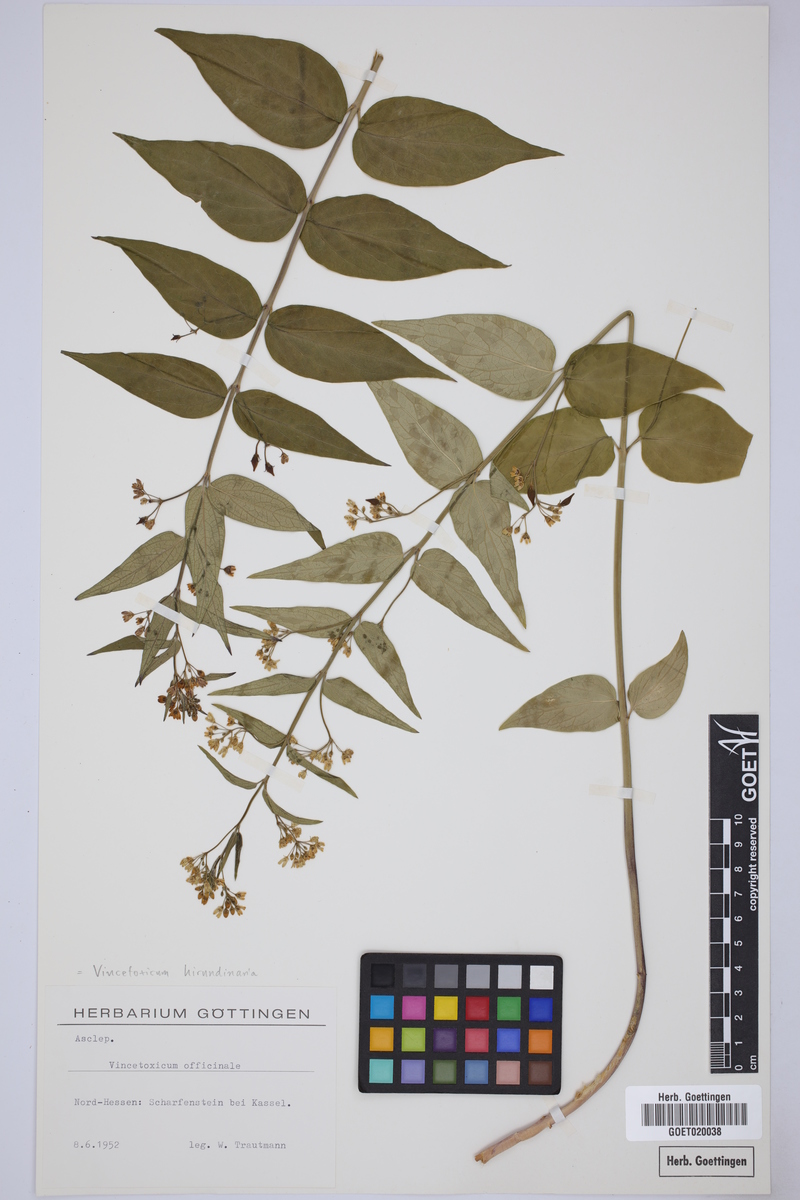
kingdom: Plantae
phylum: Tracheophyta
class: Magnoliopsida
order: Gentianales
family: Apocynaceae
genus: Vincetoxicum
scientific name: Vincetoxicum hirundinaria
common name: White swallowwort
